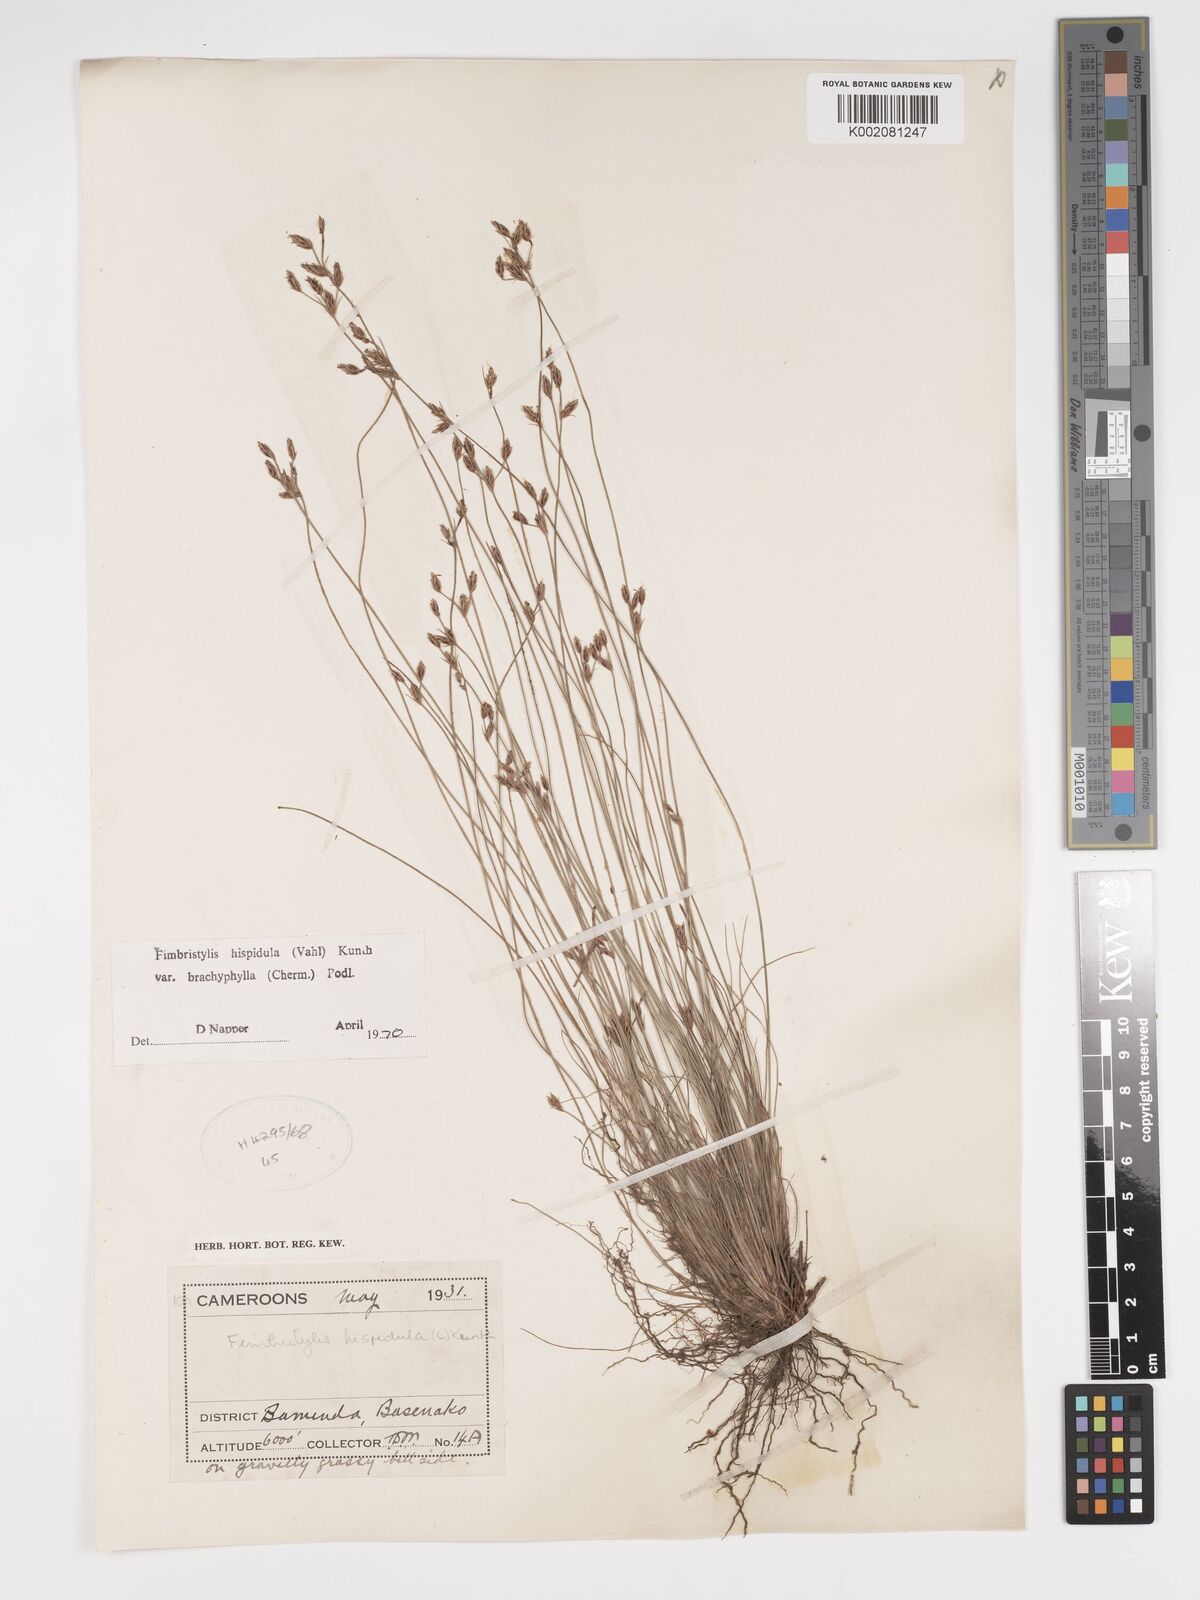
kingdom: Plantae
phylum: Tracheophyta
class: Liliopsida
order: Poales
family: Cyperaceae
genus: Bulbostylis
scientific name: Bulbostylis hispidula
